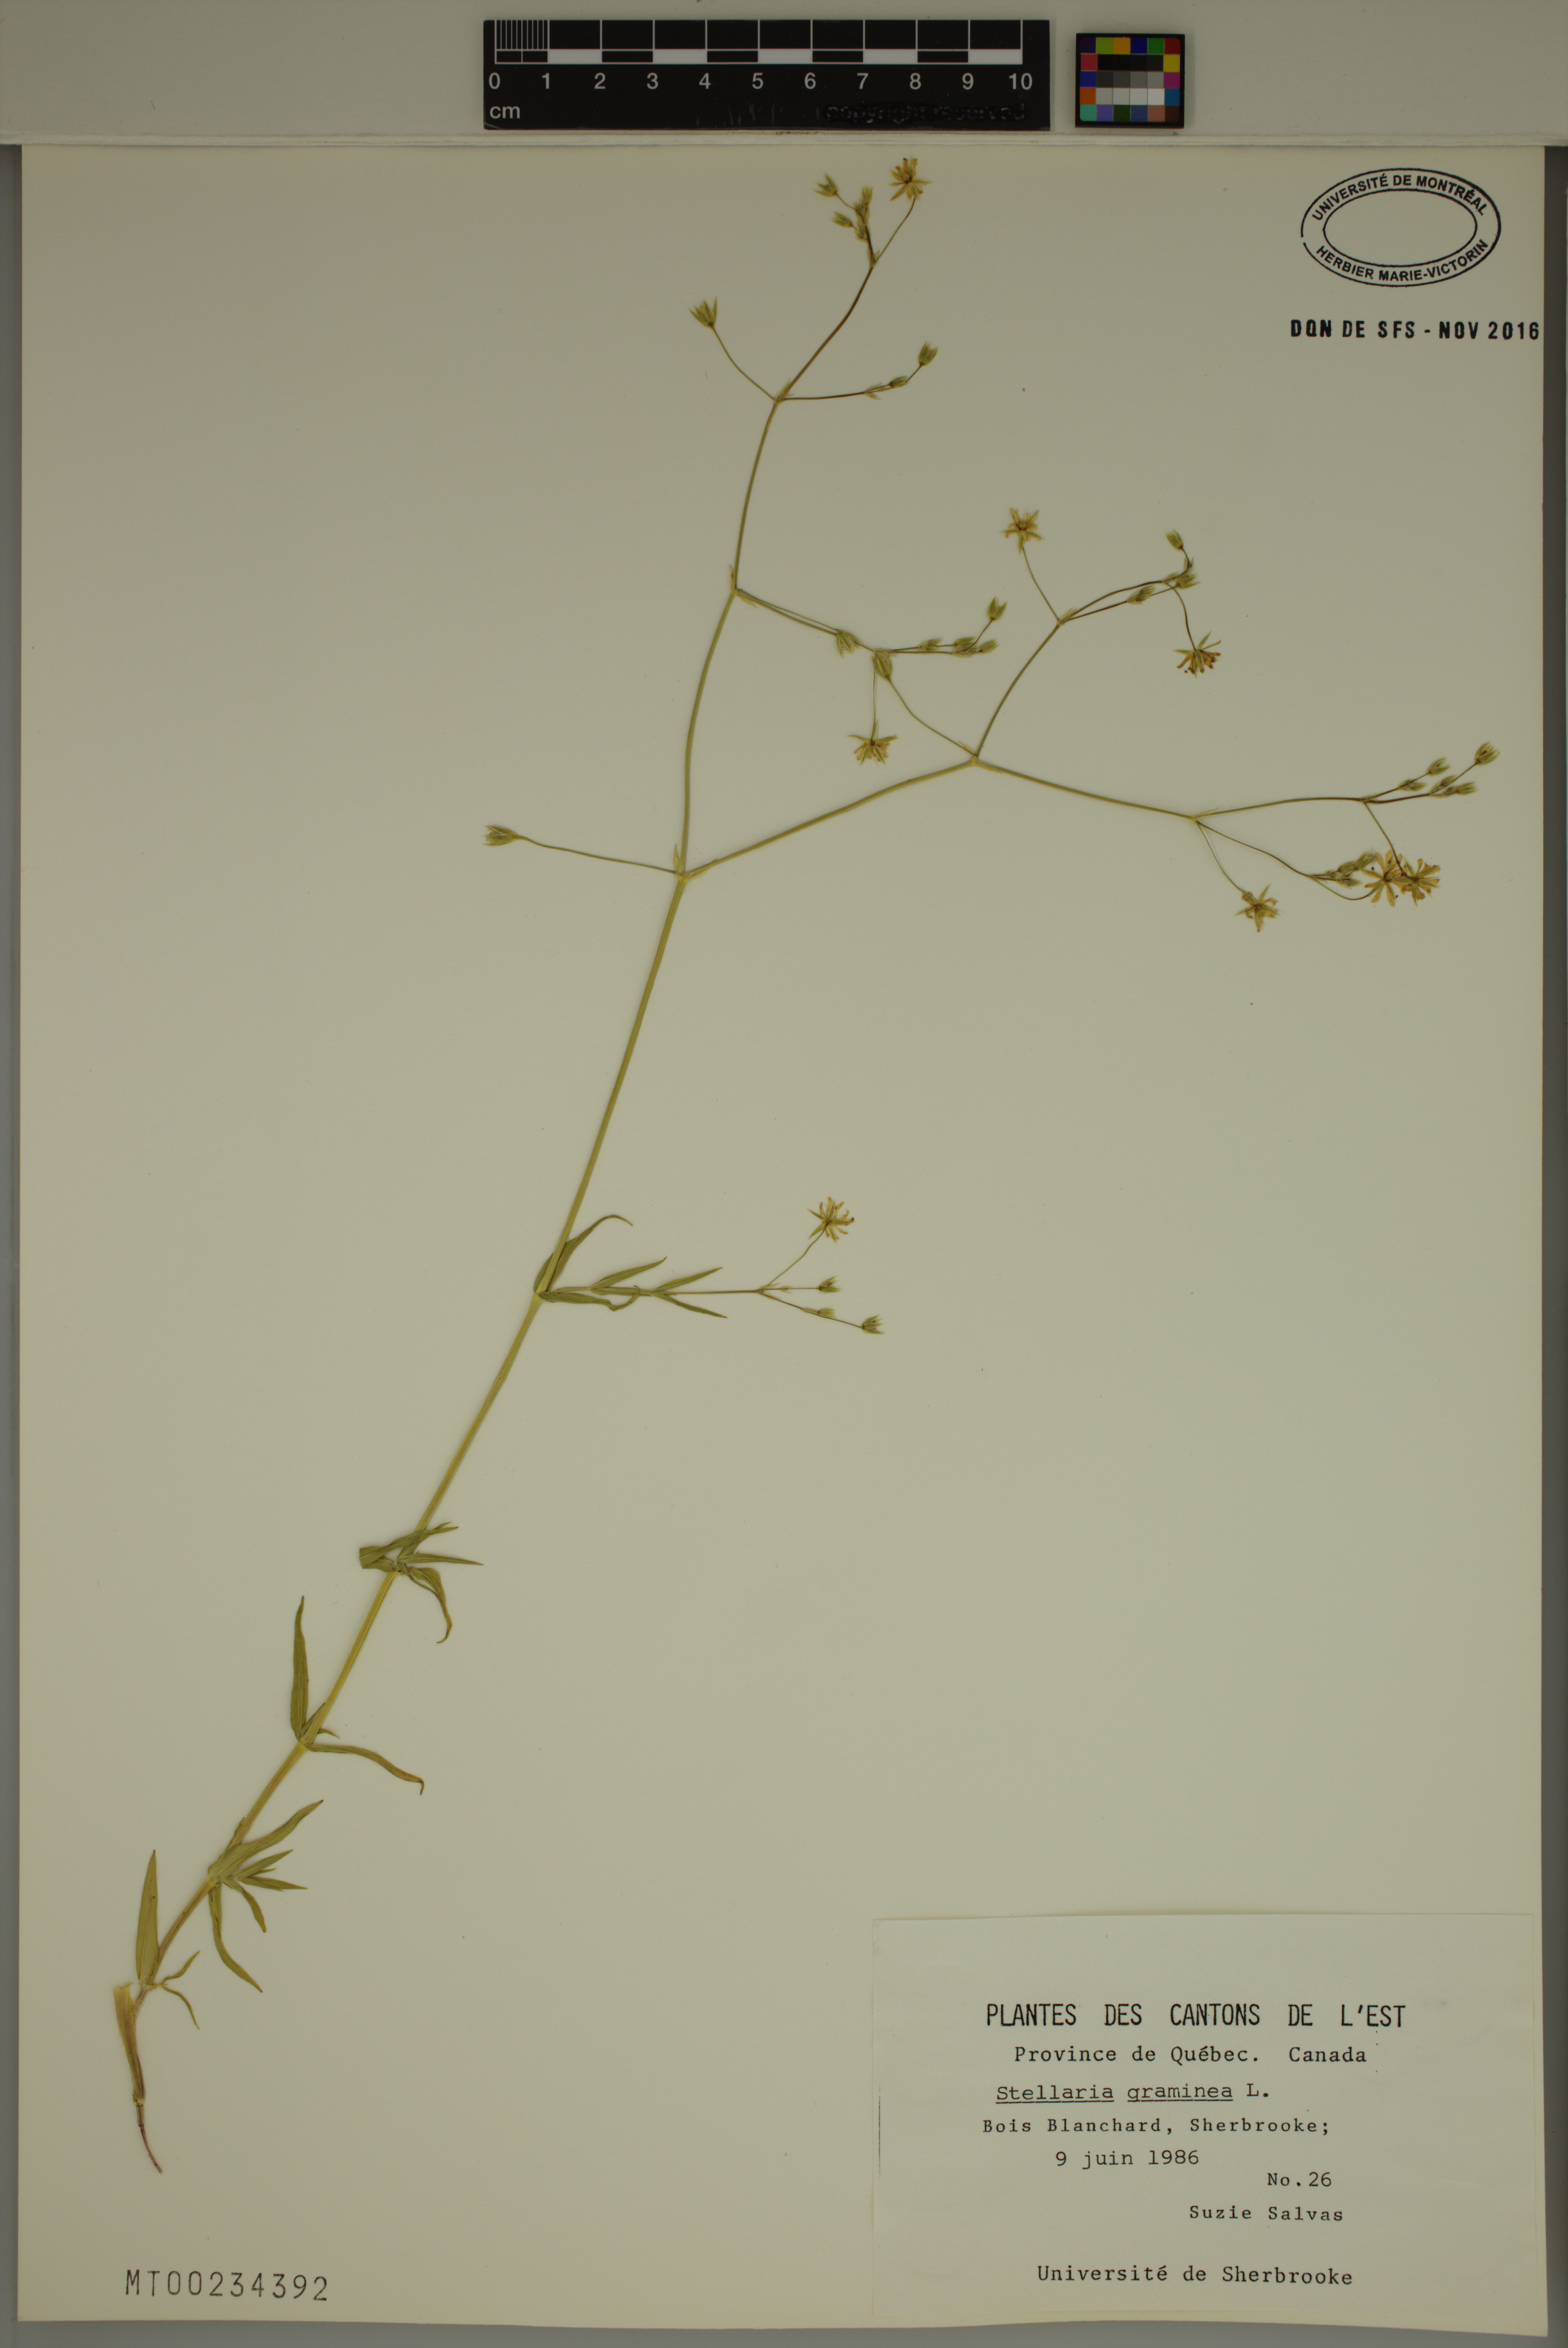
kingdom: Plantae
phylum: Tracheophyta
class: Magnoliopsida
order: Caryophyllales
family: Caryophyllaceae
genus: Stellaria
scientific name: Stellaria graminea
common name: Grass-like starwort
